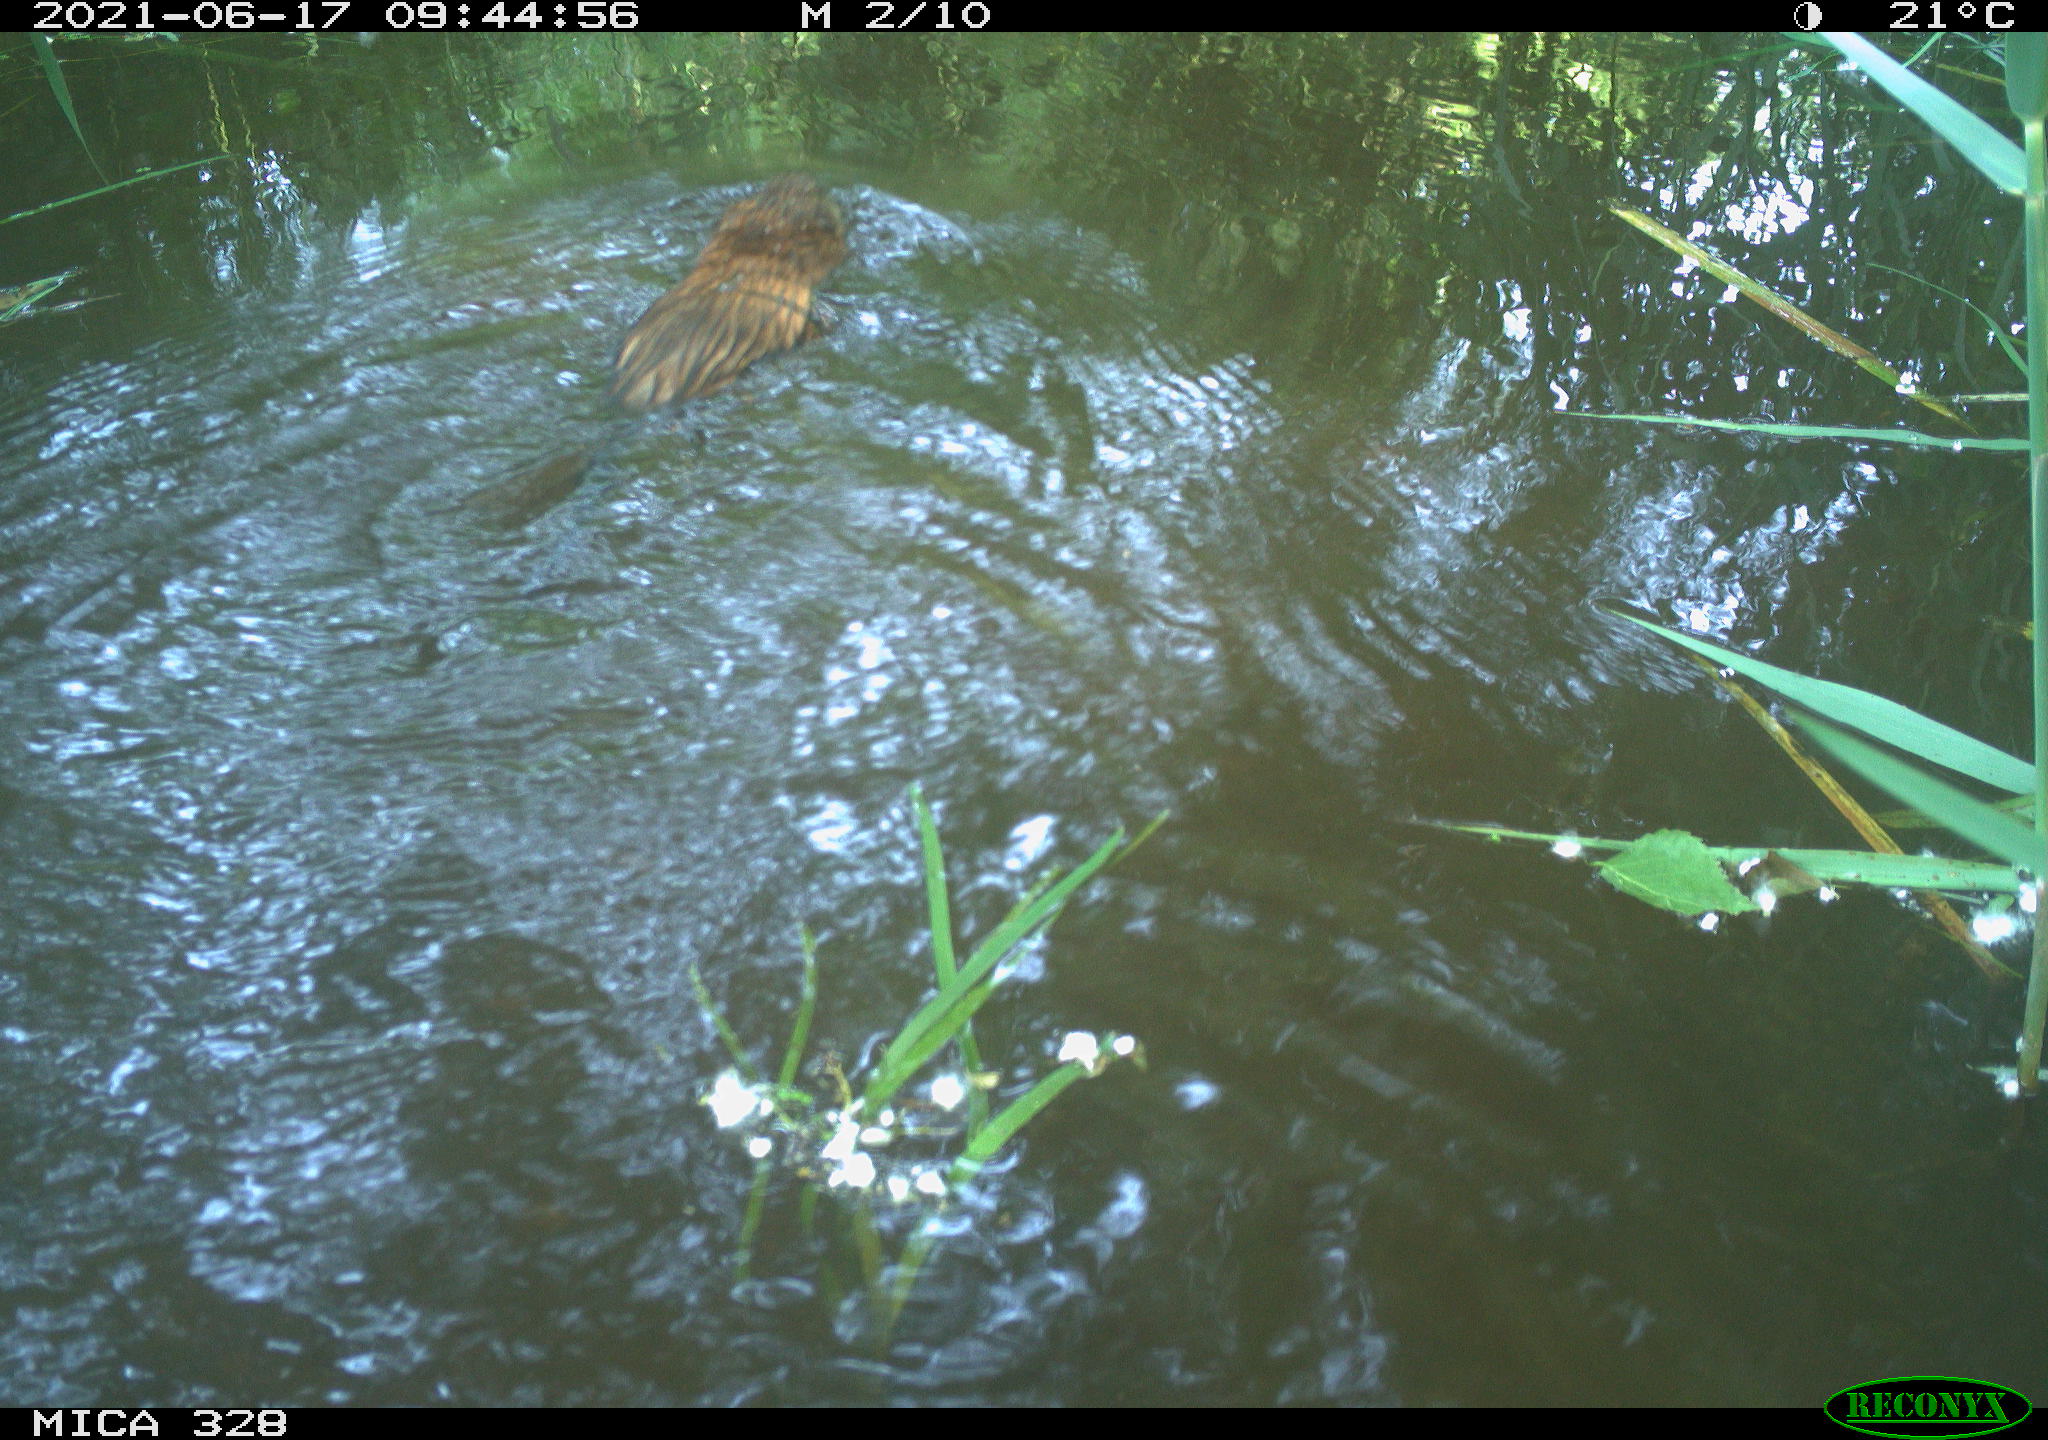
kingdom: Animalia
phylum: Chordata
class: Mammalia
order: Rodentia
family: Cricetidae
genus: Ondatra
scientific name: Ondatra zibethicus
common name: Muskrat
